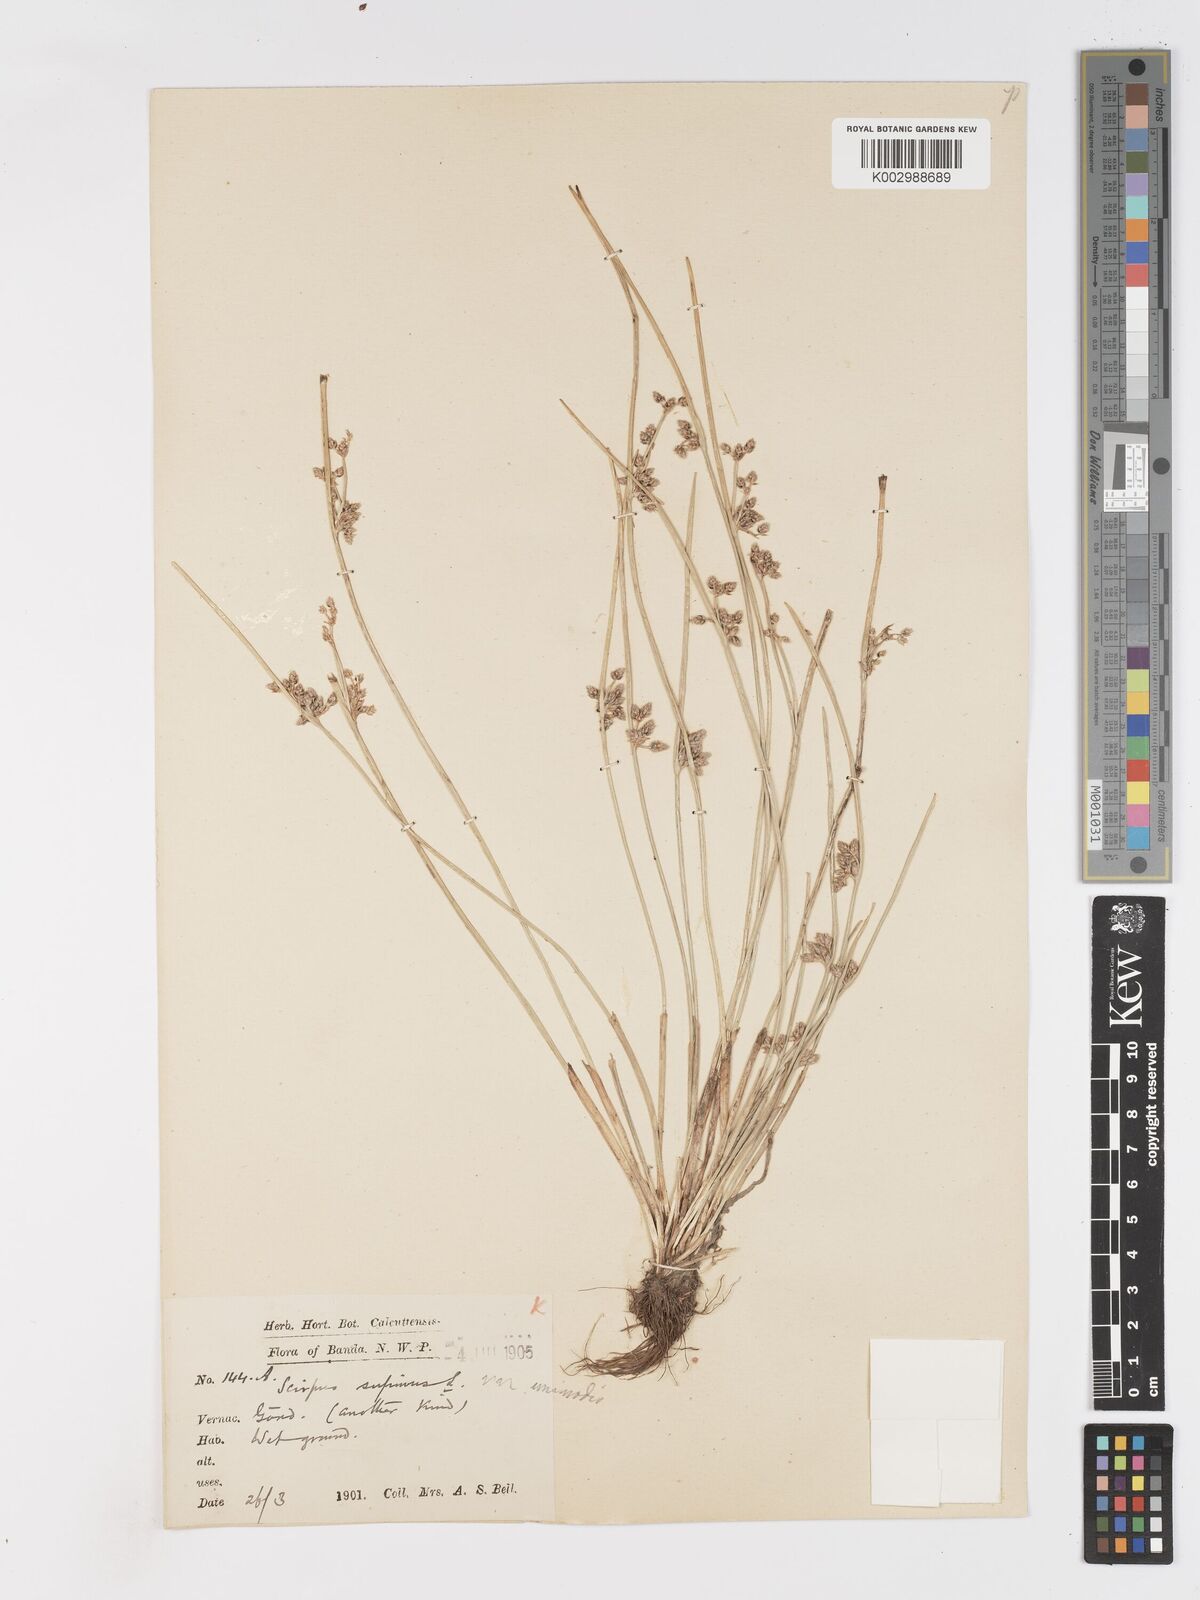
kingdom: Plantae
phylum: Tracheophyta
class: Liliopsida
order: Poales
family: Cyperaceae
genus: Schoenoplectiella
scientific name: Schoenoplectiella lateriflora
